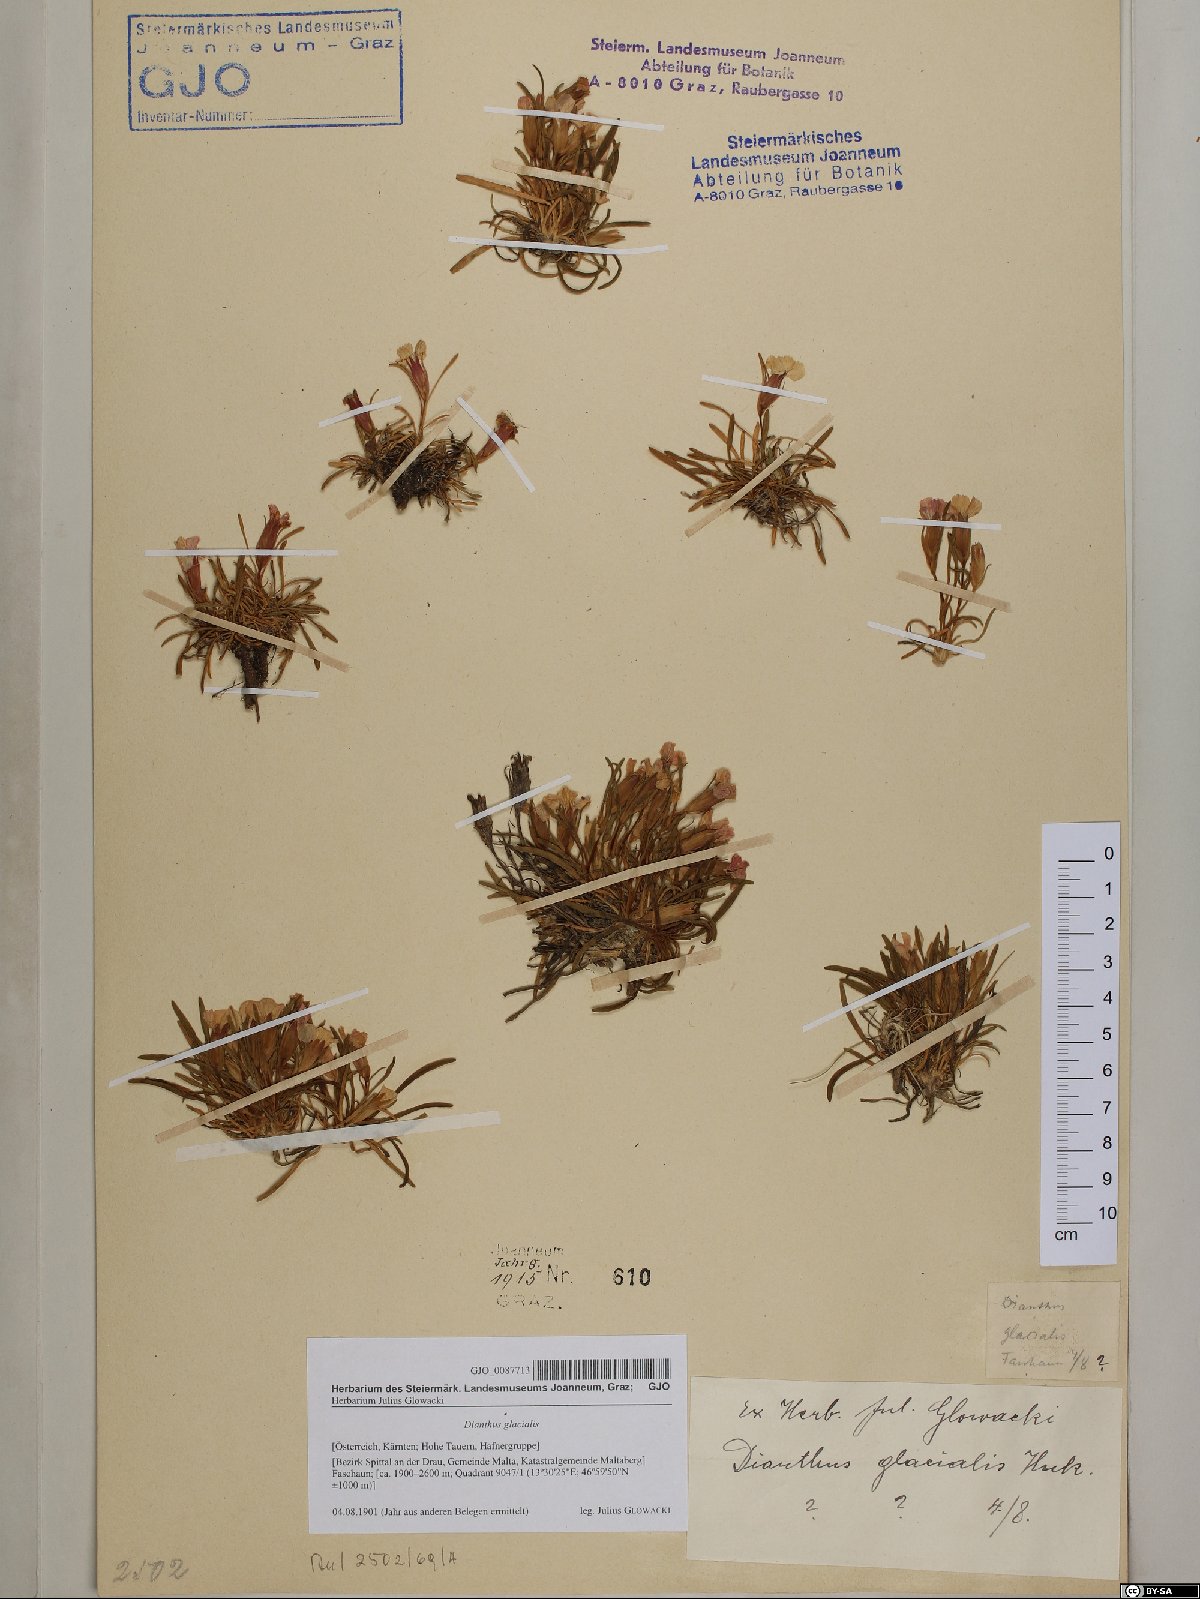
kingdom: Plantae
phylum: Tracheophyta
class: Magnoliopsida
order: Caryophyllales
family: Caryophyllaceae
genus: Dianthus
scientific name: Dianthus glacialis
